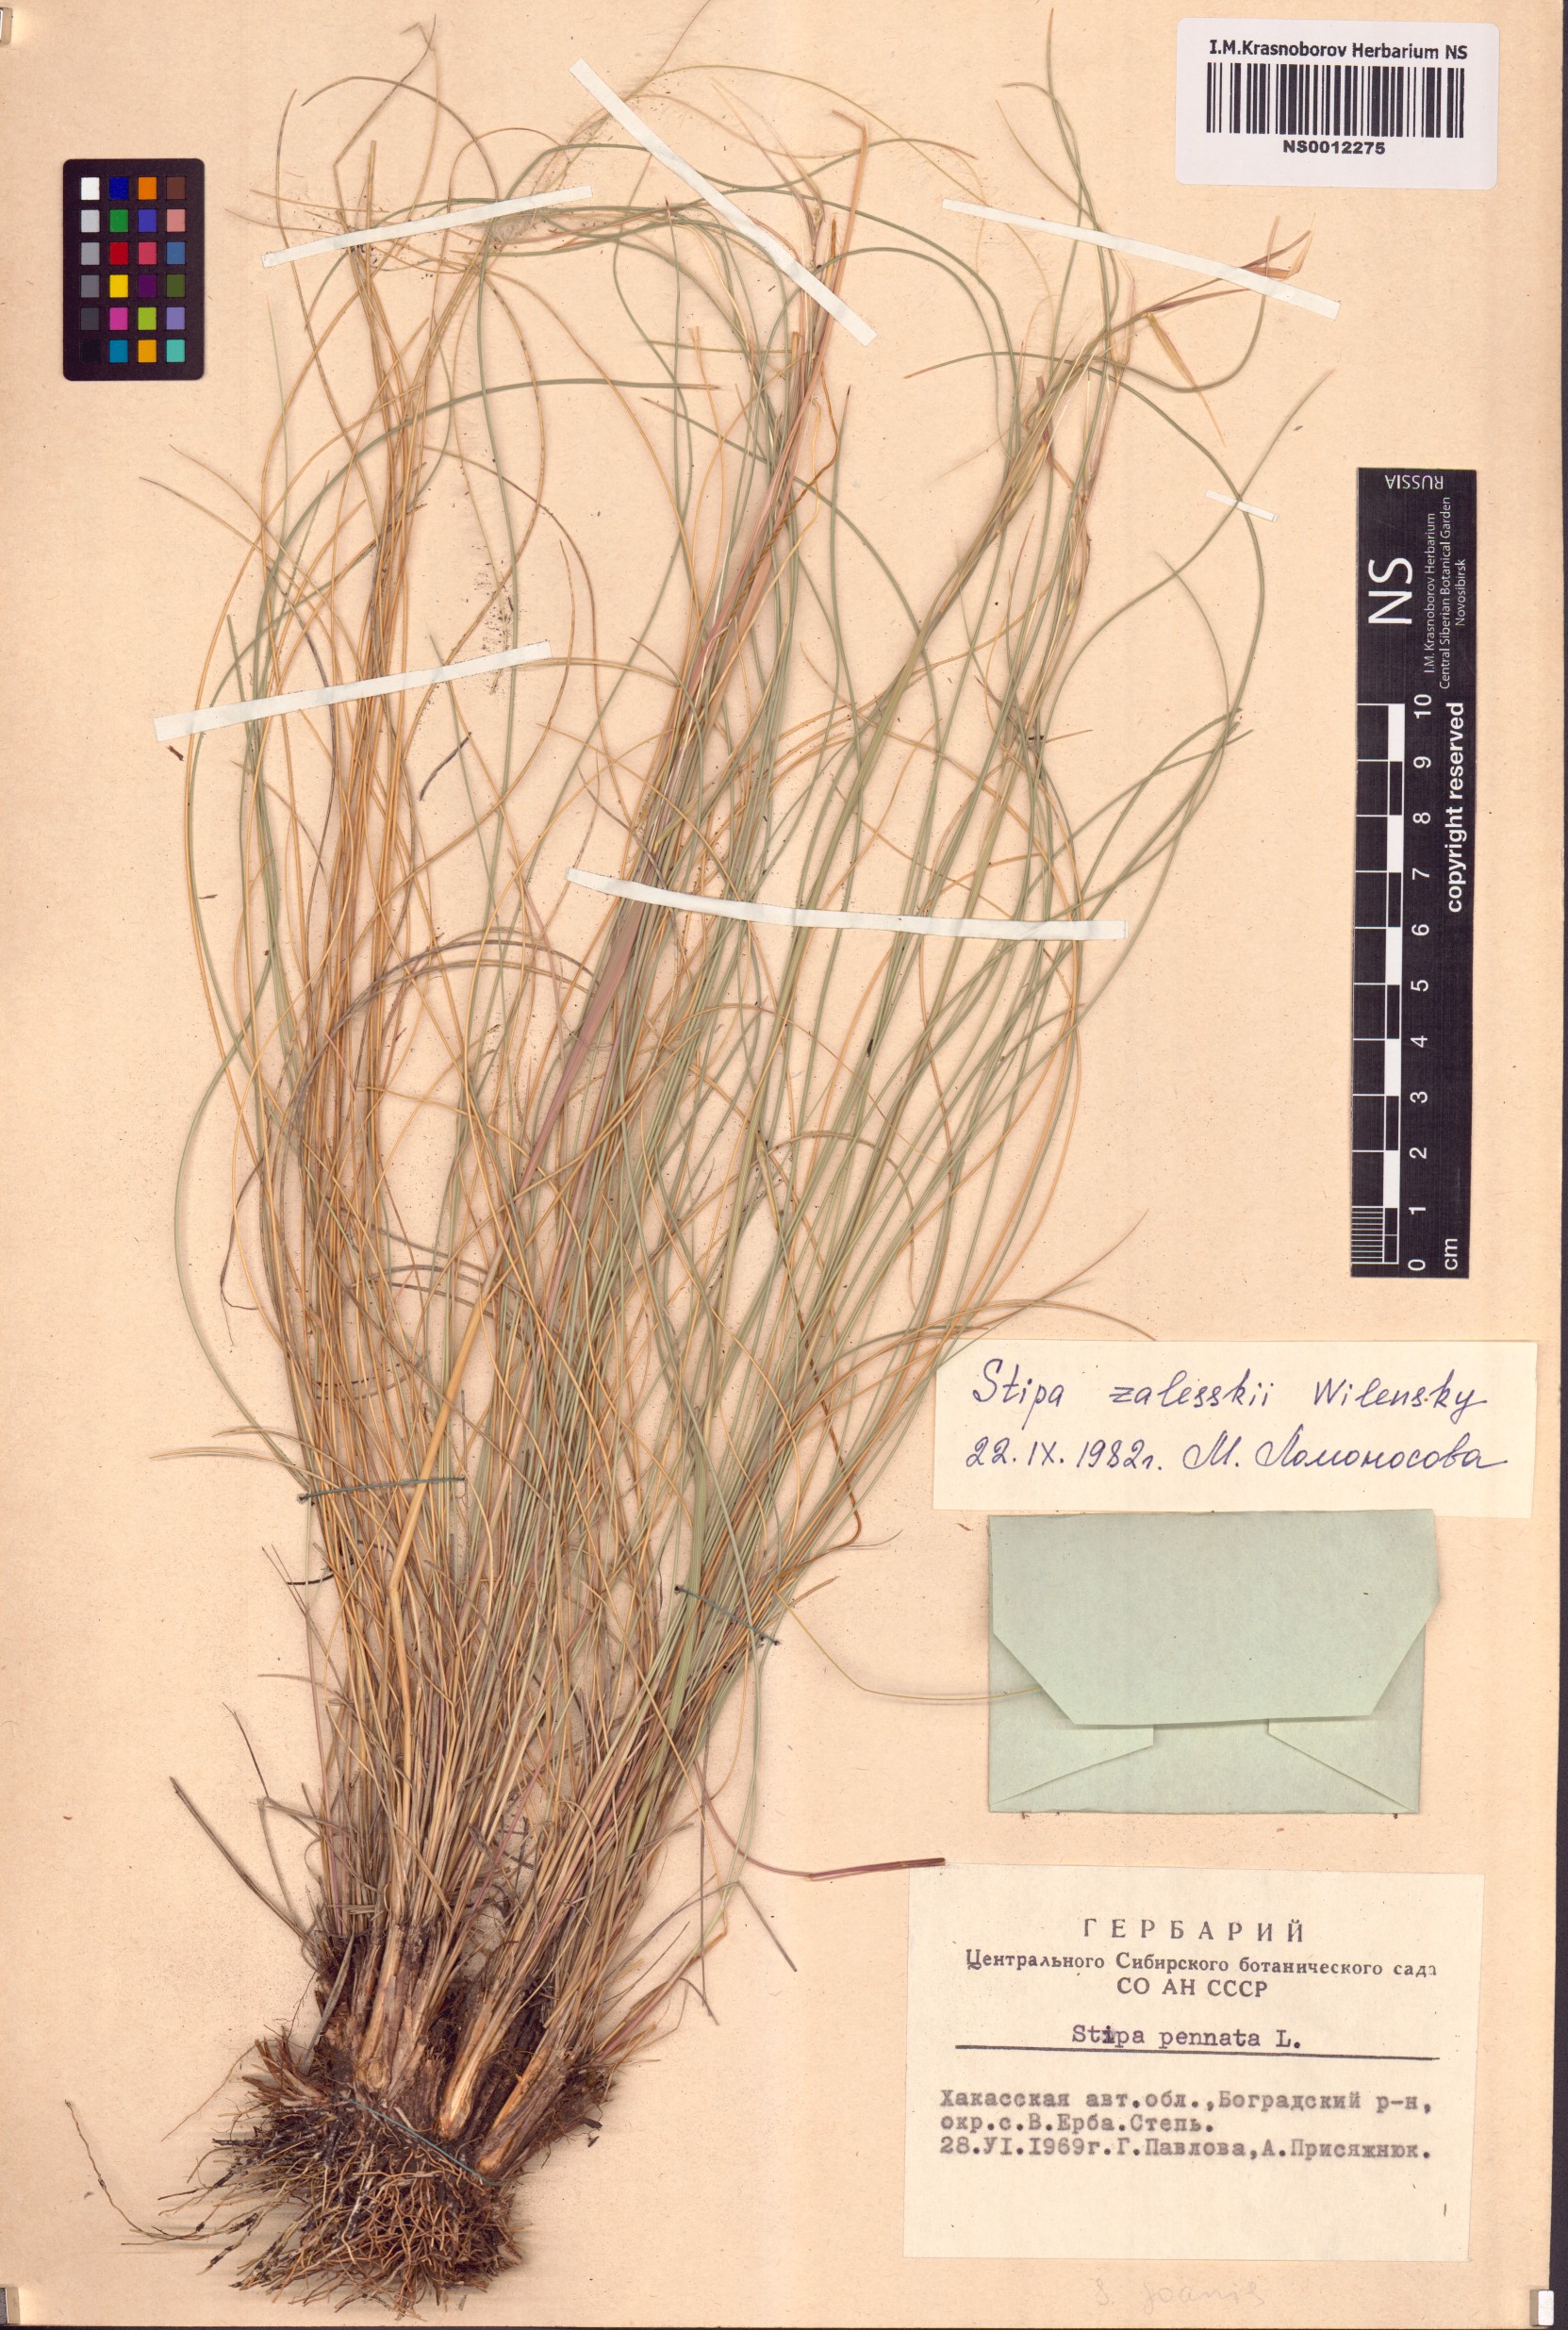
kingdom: Plantae
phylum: Tracheophyta
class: Liliopsida
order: Poales
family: Poaceae
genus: Stipa
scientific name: Stipa zalesskii
